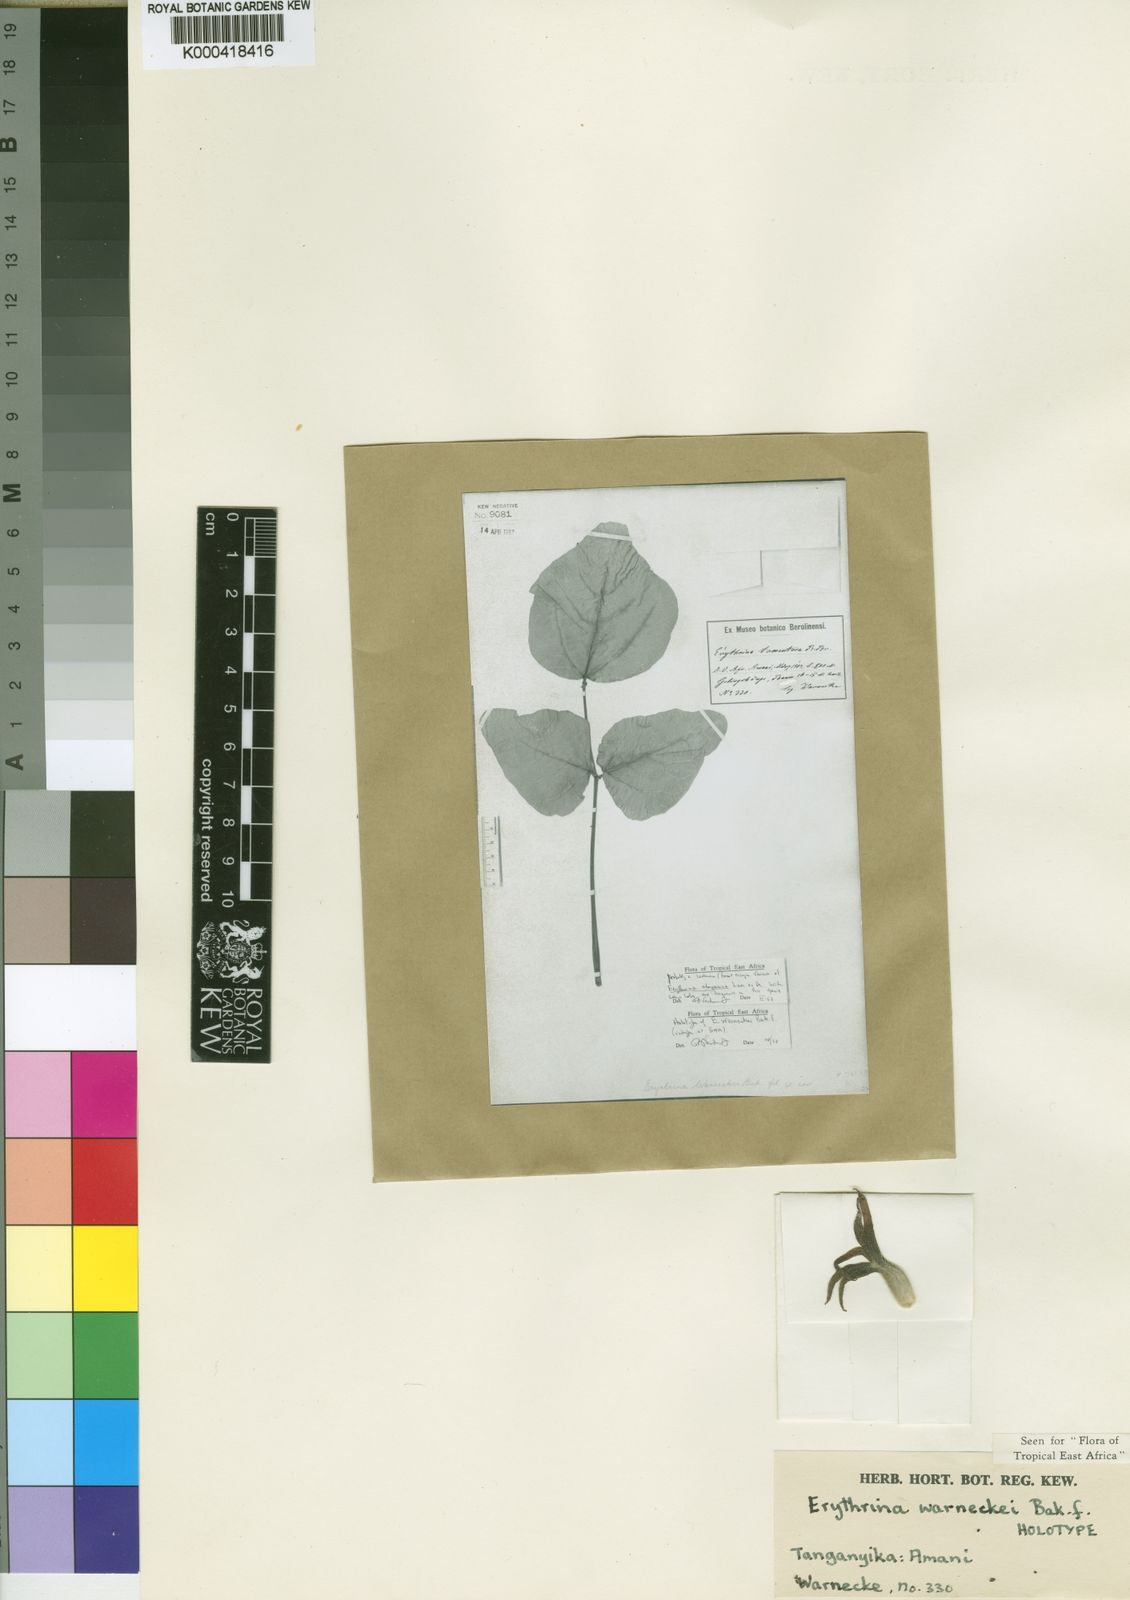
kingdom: Plantae
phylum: Tracheophyta
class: Magnoliopsida
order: Fabales
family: Fabaceae
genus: Erythrina
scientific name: Erythrina abyssinica
